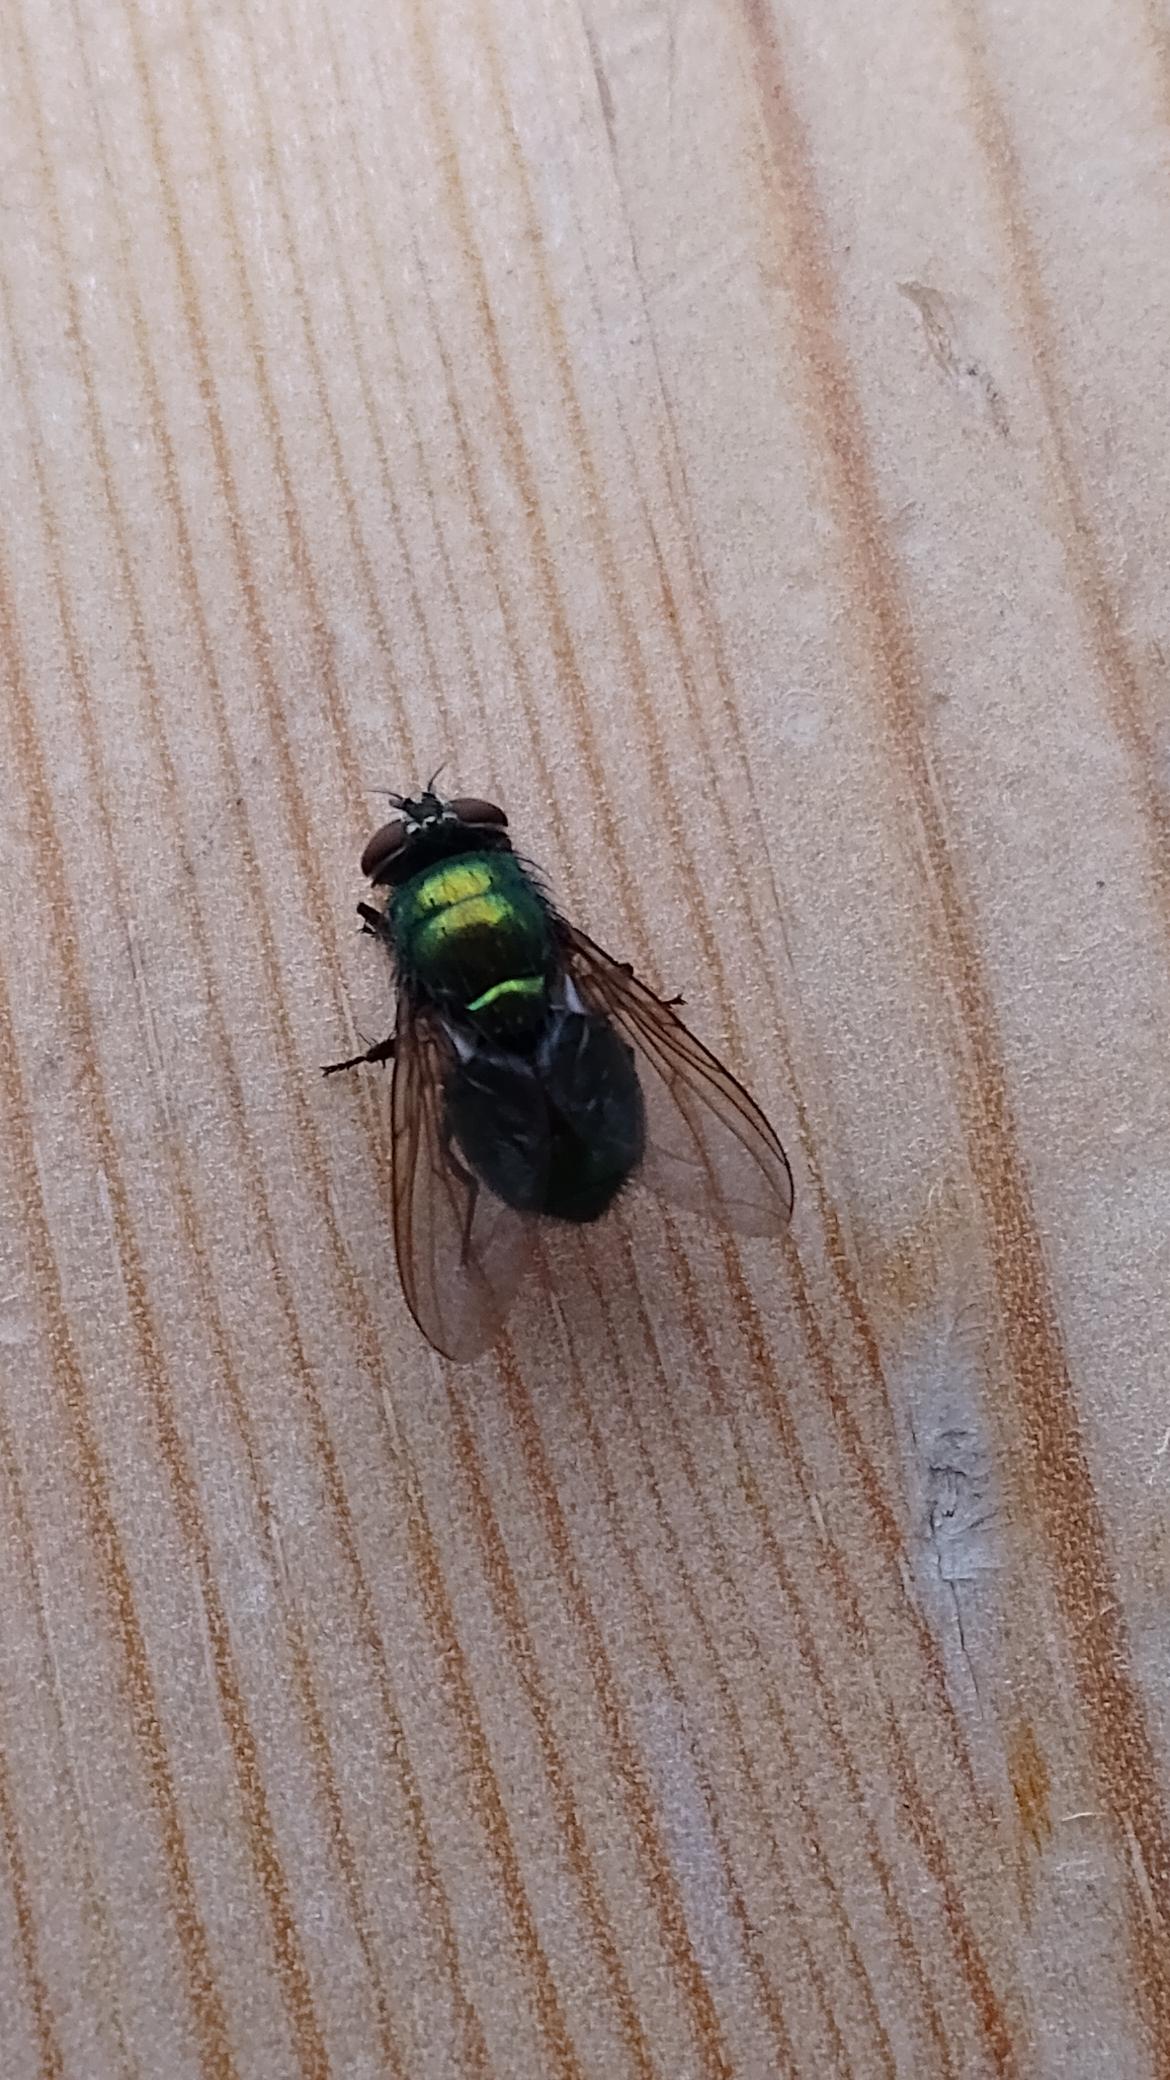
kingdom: Animalia
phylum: Arthropoda
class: Insecta
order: Diptera
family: Calliphoridae
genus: Lucilia
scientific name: Lucilia
